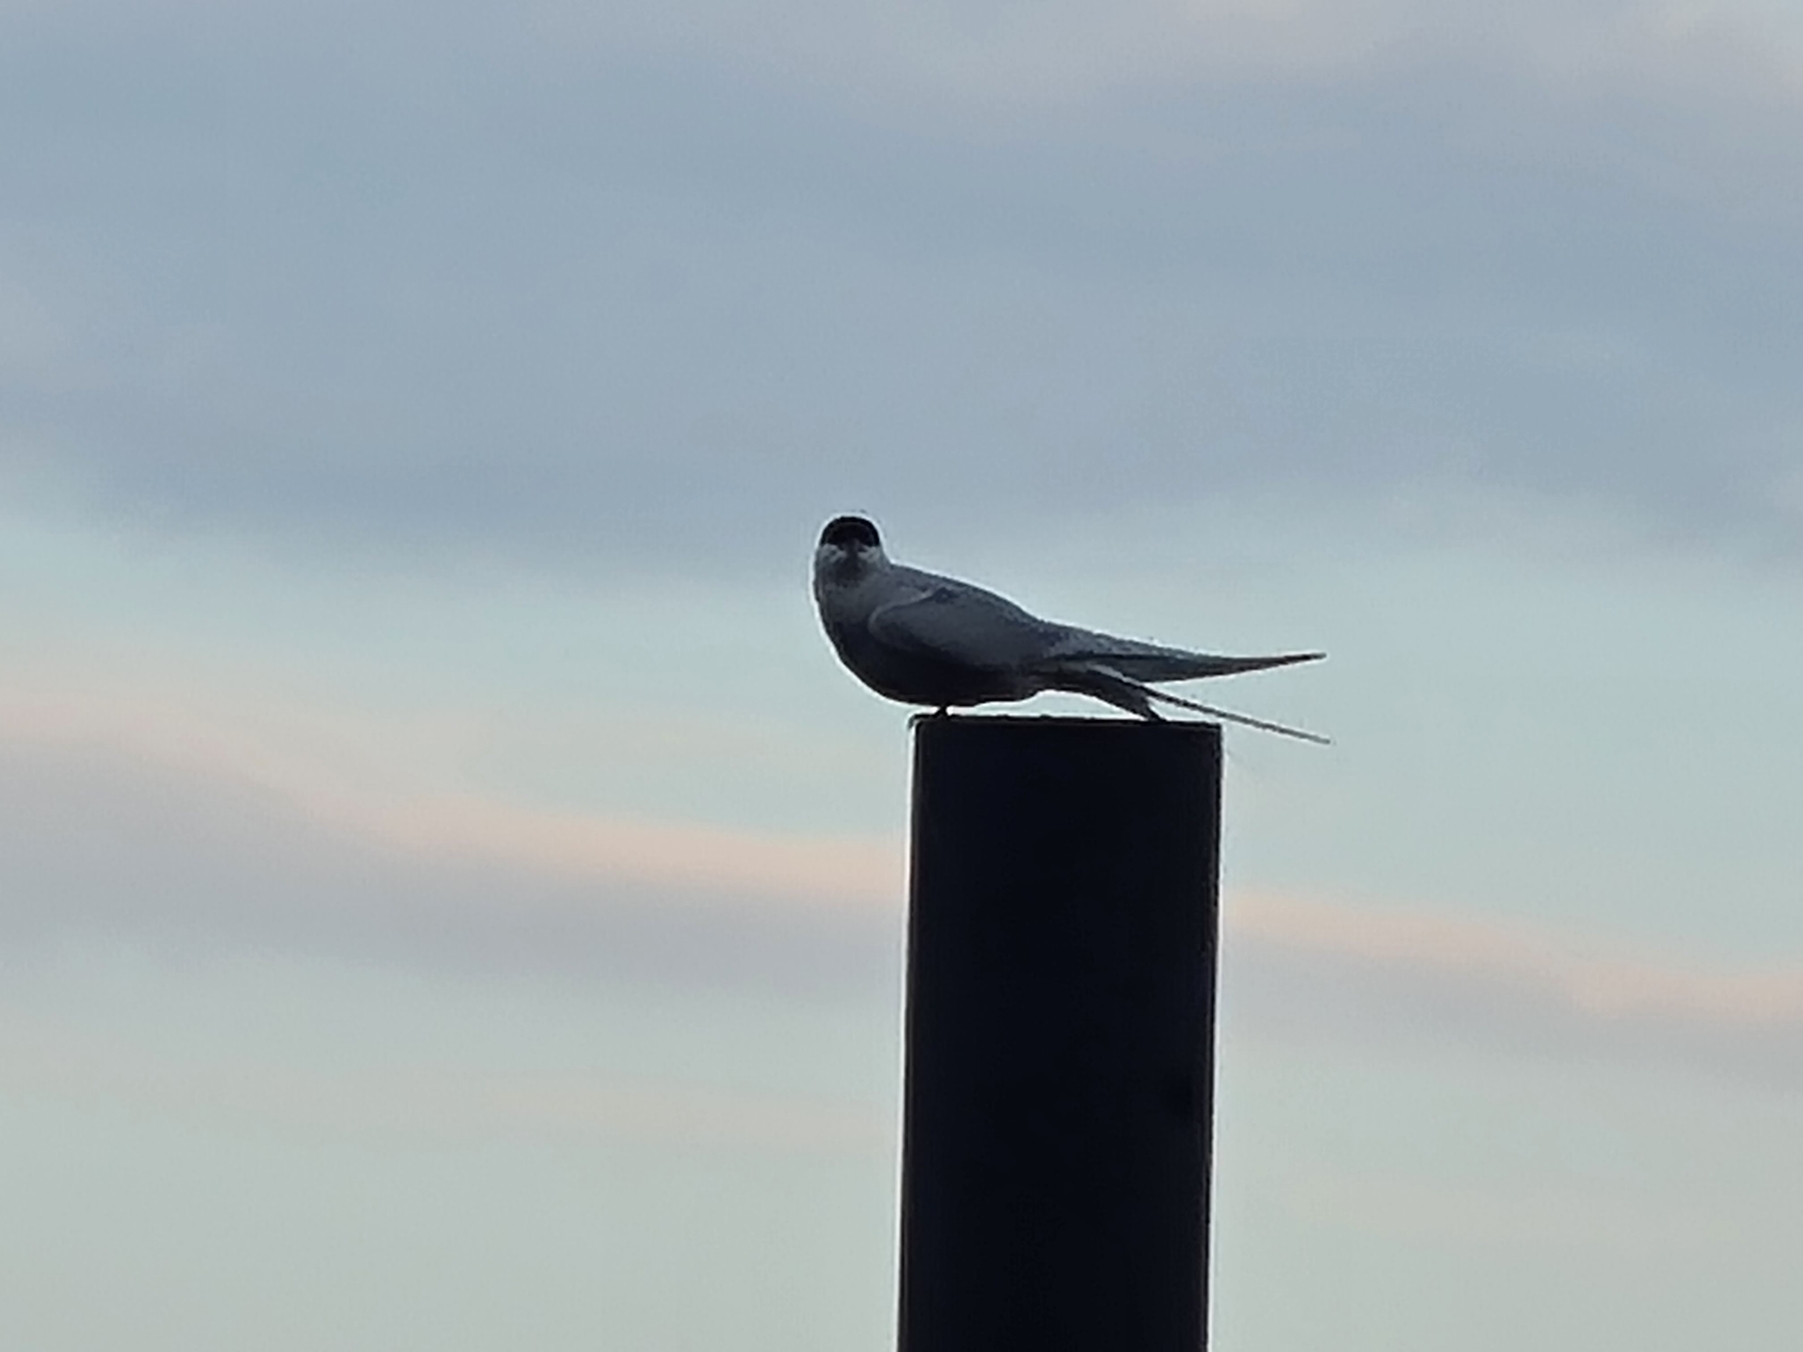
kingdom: Animalia
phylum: Chordata
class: Aves
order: Charadriiformes
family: Laridae
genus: Sterna
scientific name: Sterna paradisaea
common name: Havterne
